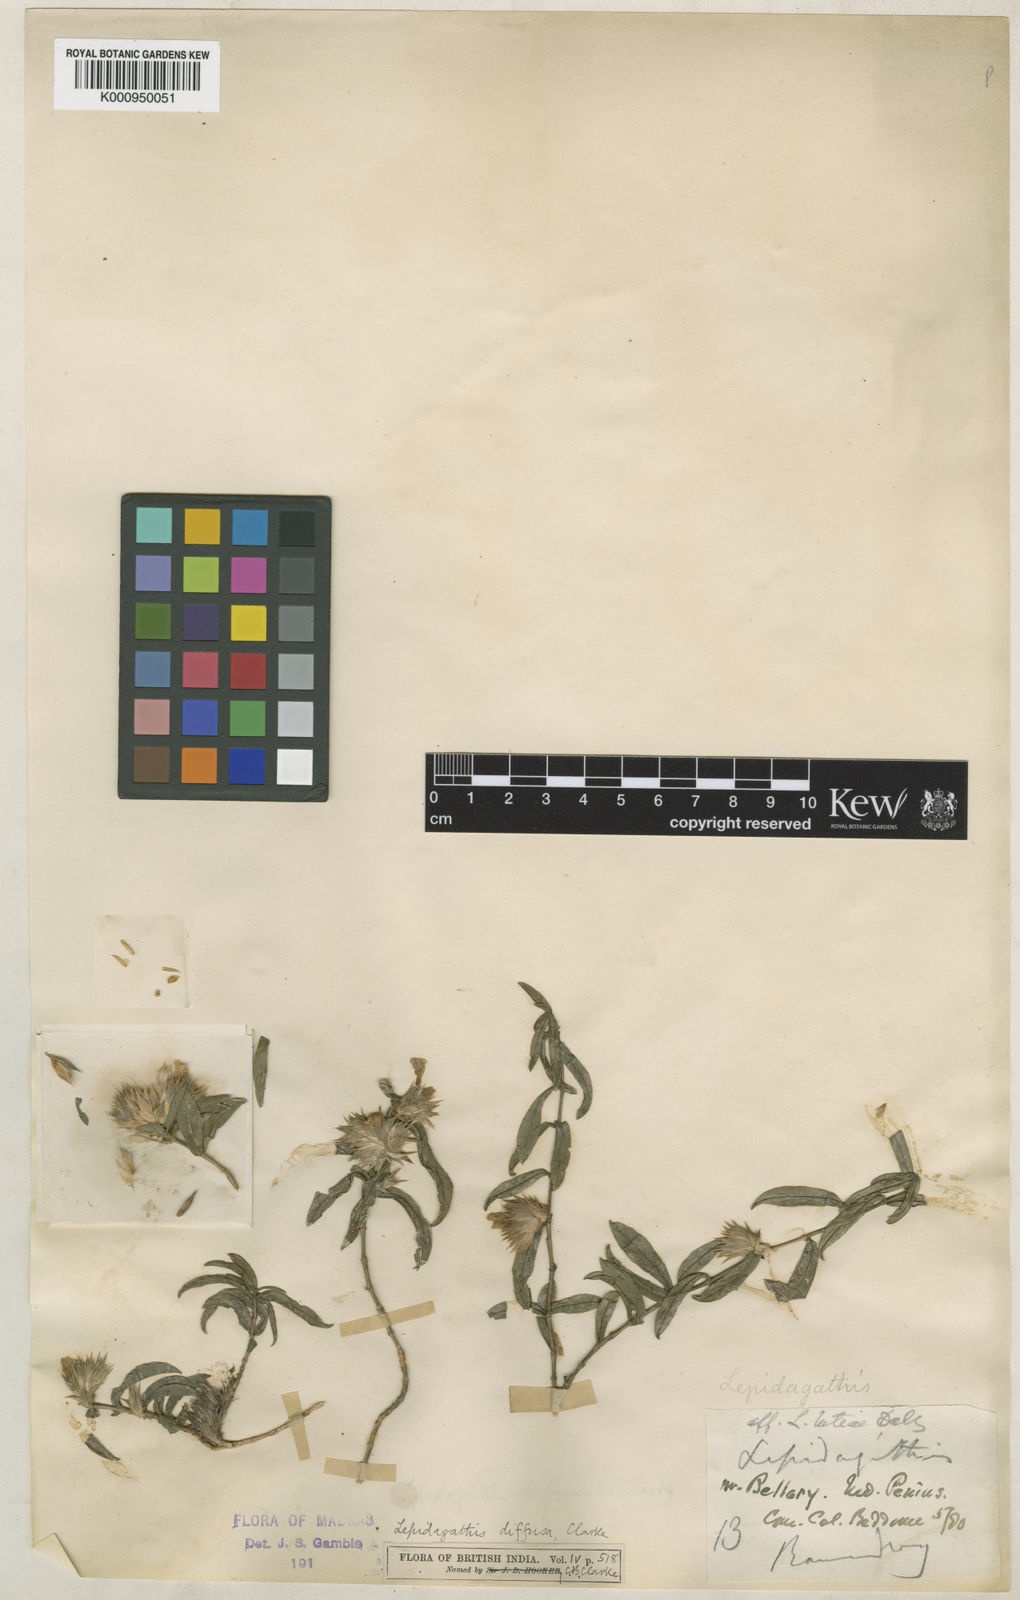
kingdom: Plantae
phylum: Tracheophyta
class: Magnoliopsida
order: Lamiales
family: Acanthaceae
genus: Lepidagathis
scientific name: Lepidagathis diffusa
